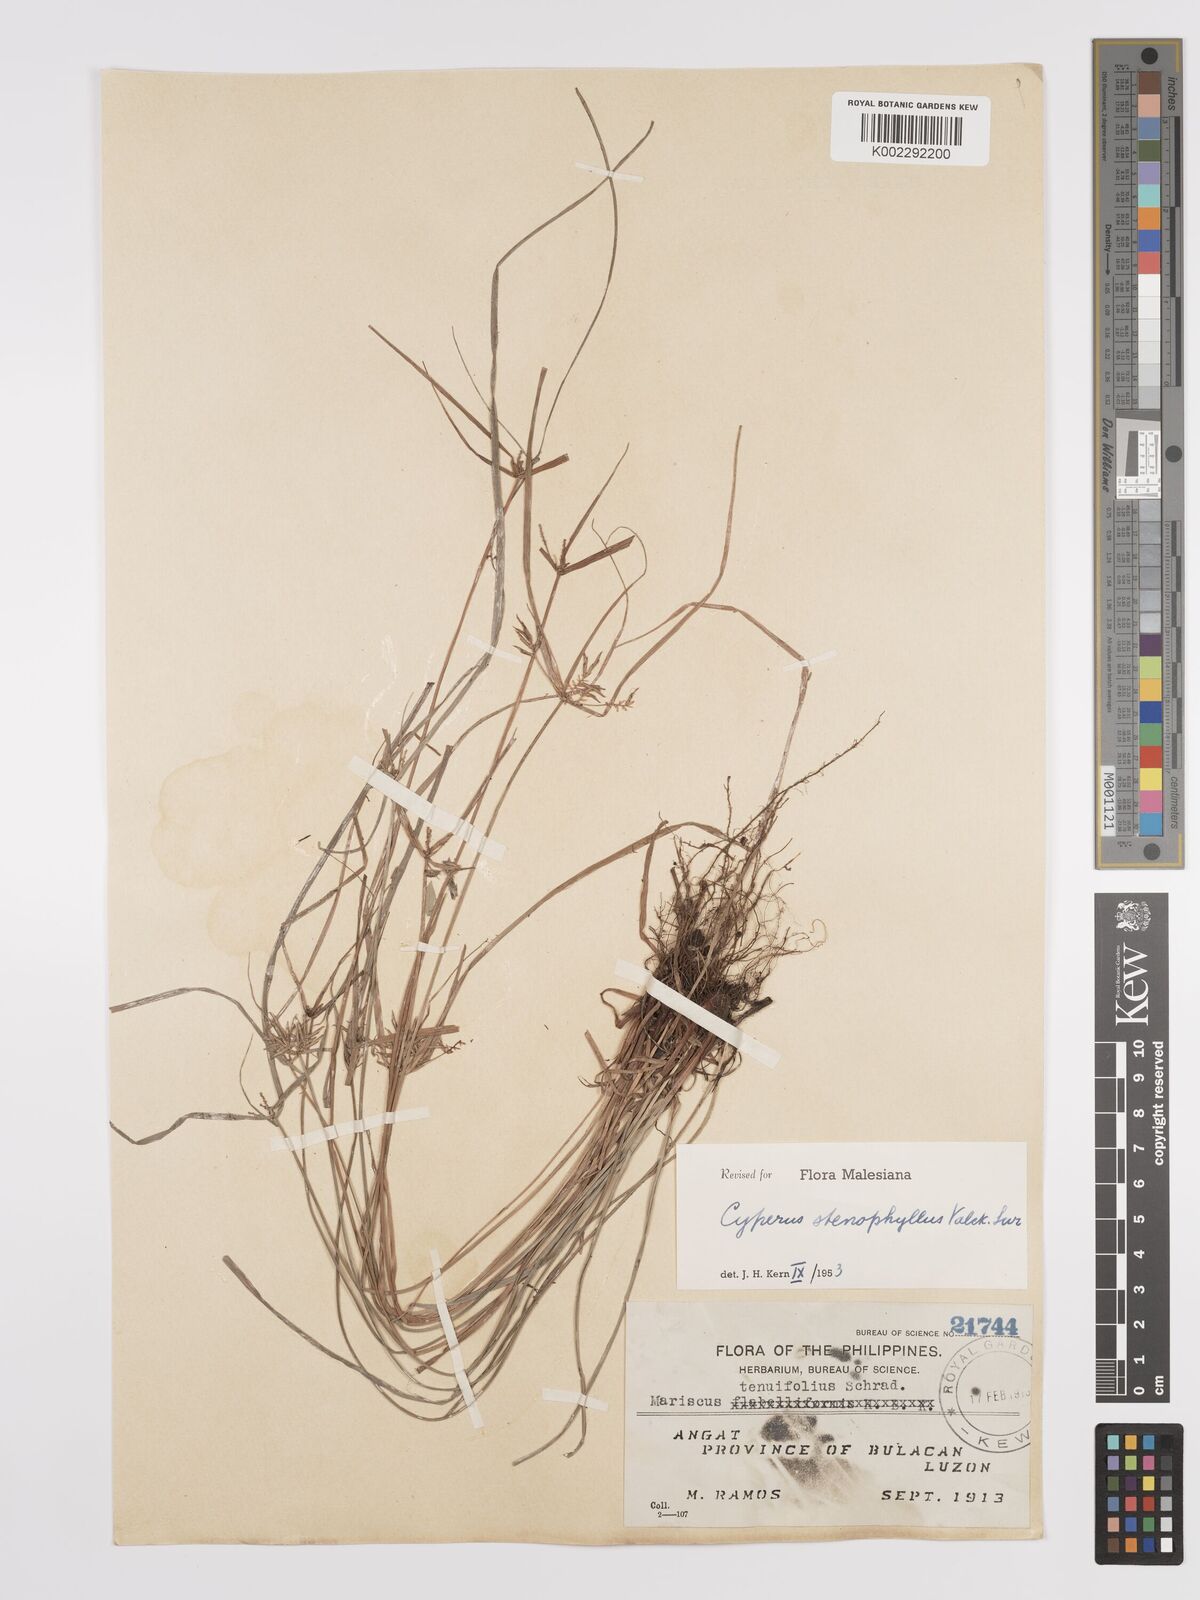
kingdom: Plantae
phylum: Tracheophyta
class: Liliopsida
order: Poales
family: Cyperaceae
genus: Cyperus
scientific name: Cyperus stenophyllus
